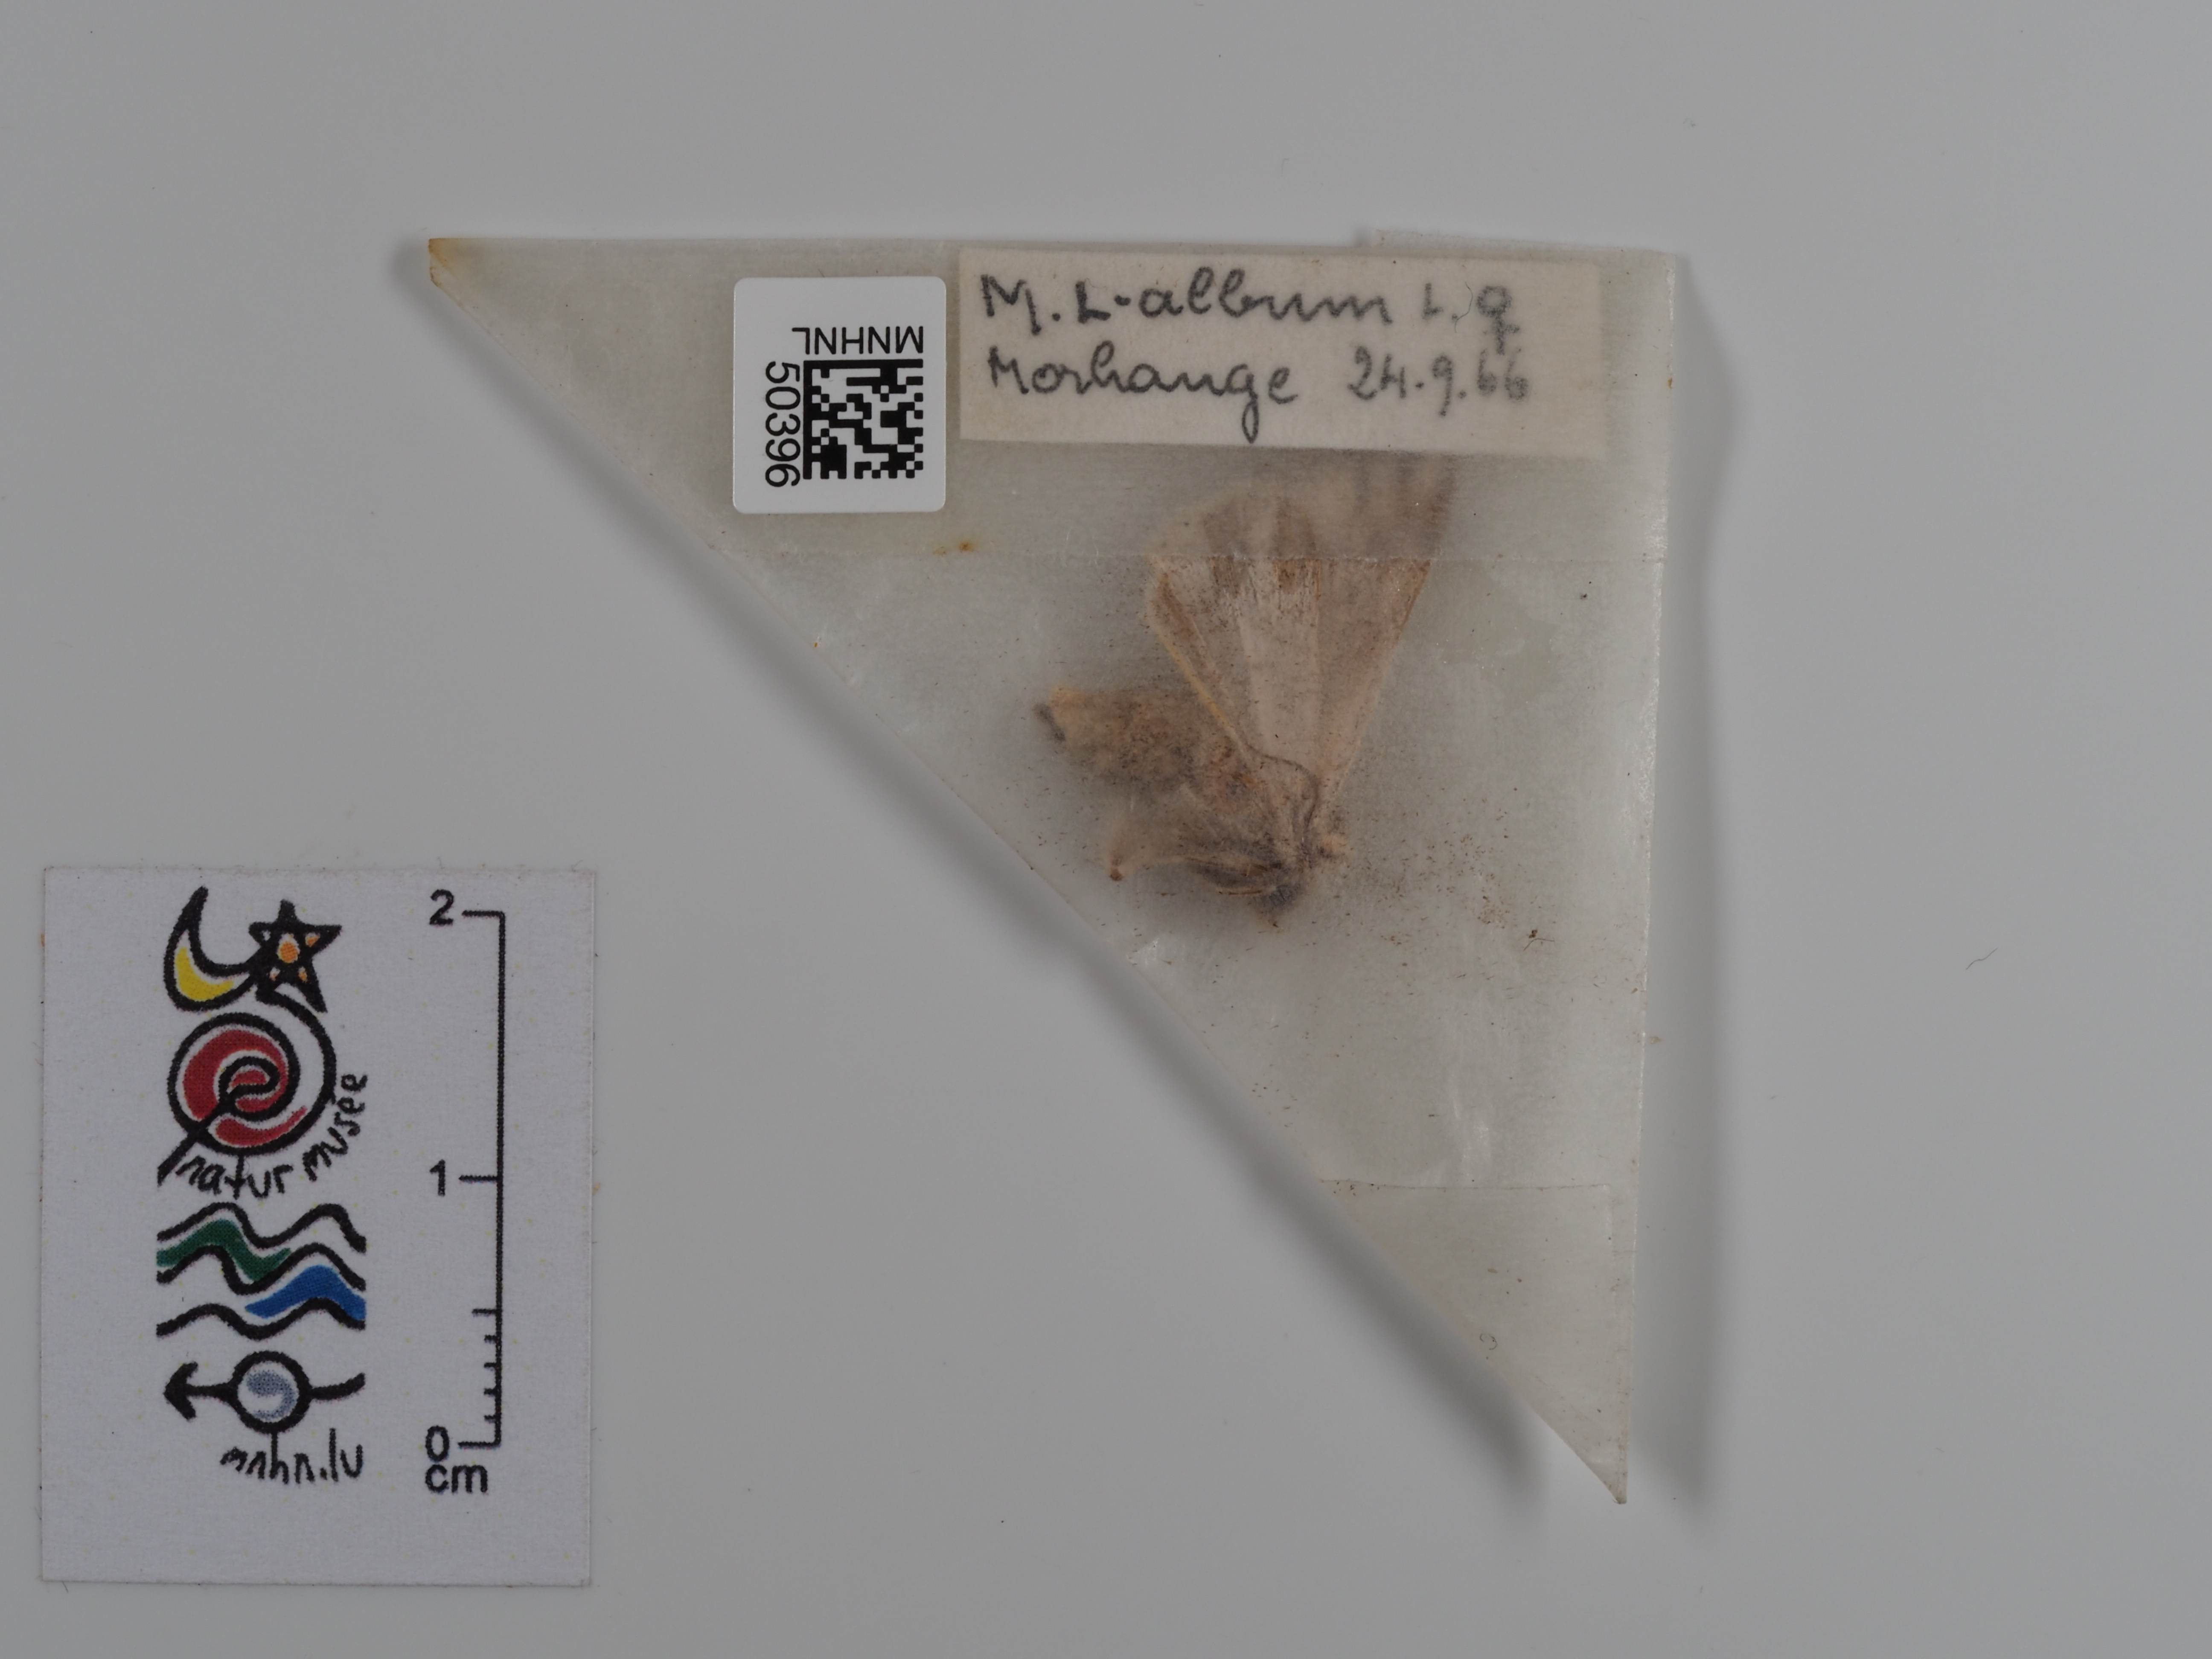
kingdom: Animalia
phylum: Arthropoda
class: Insecta
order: Lepidoptera
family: Noctuidae
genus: Mythimna
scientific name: Mythimna l-album
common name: L-album wainscot
